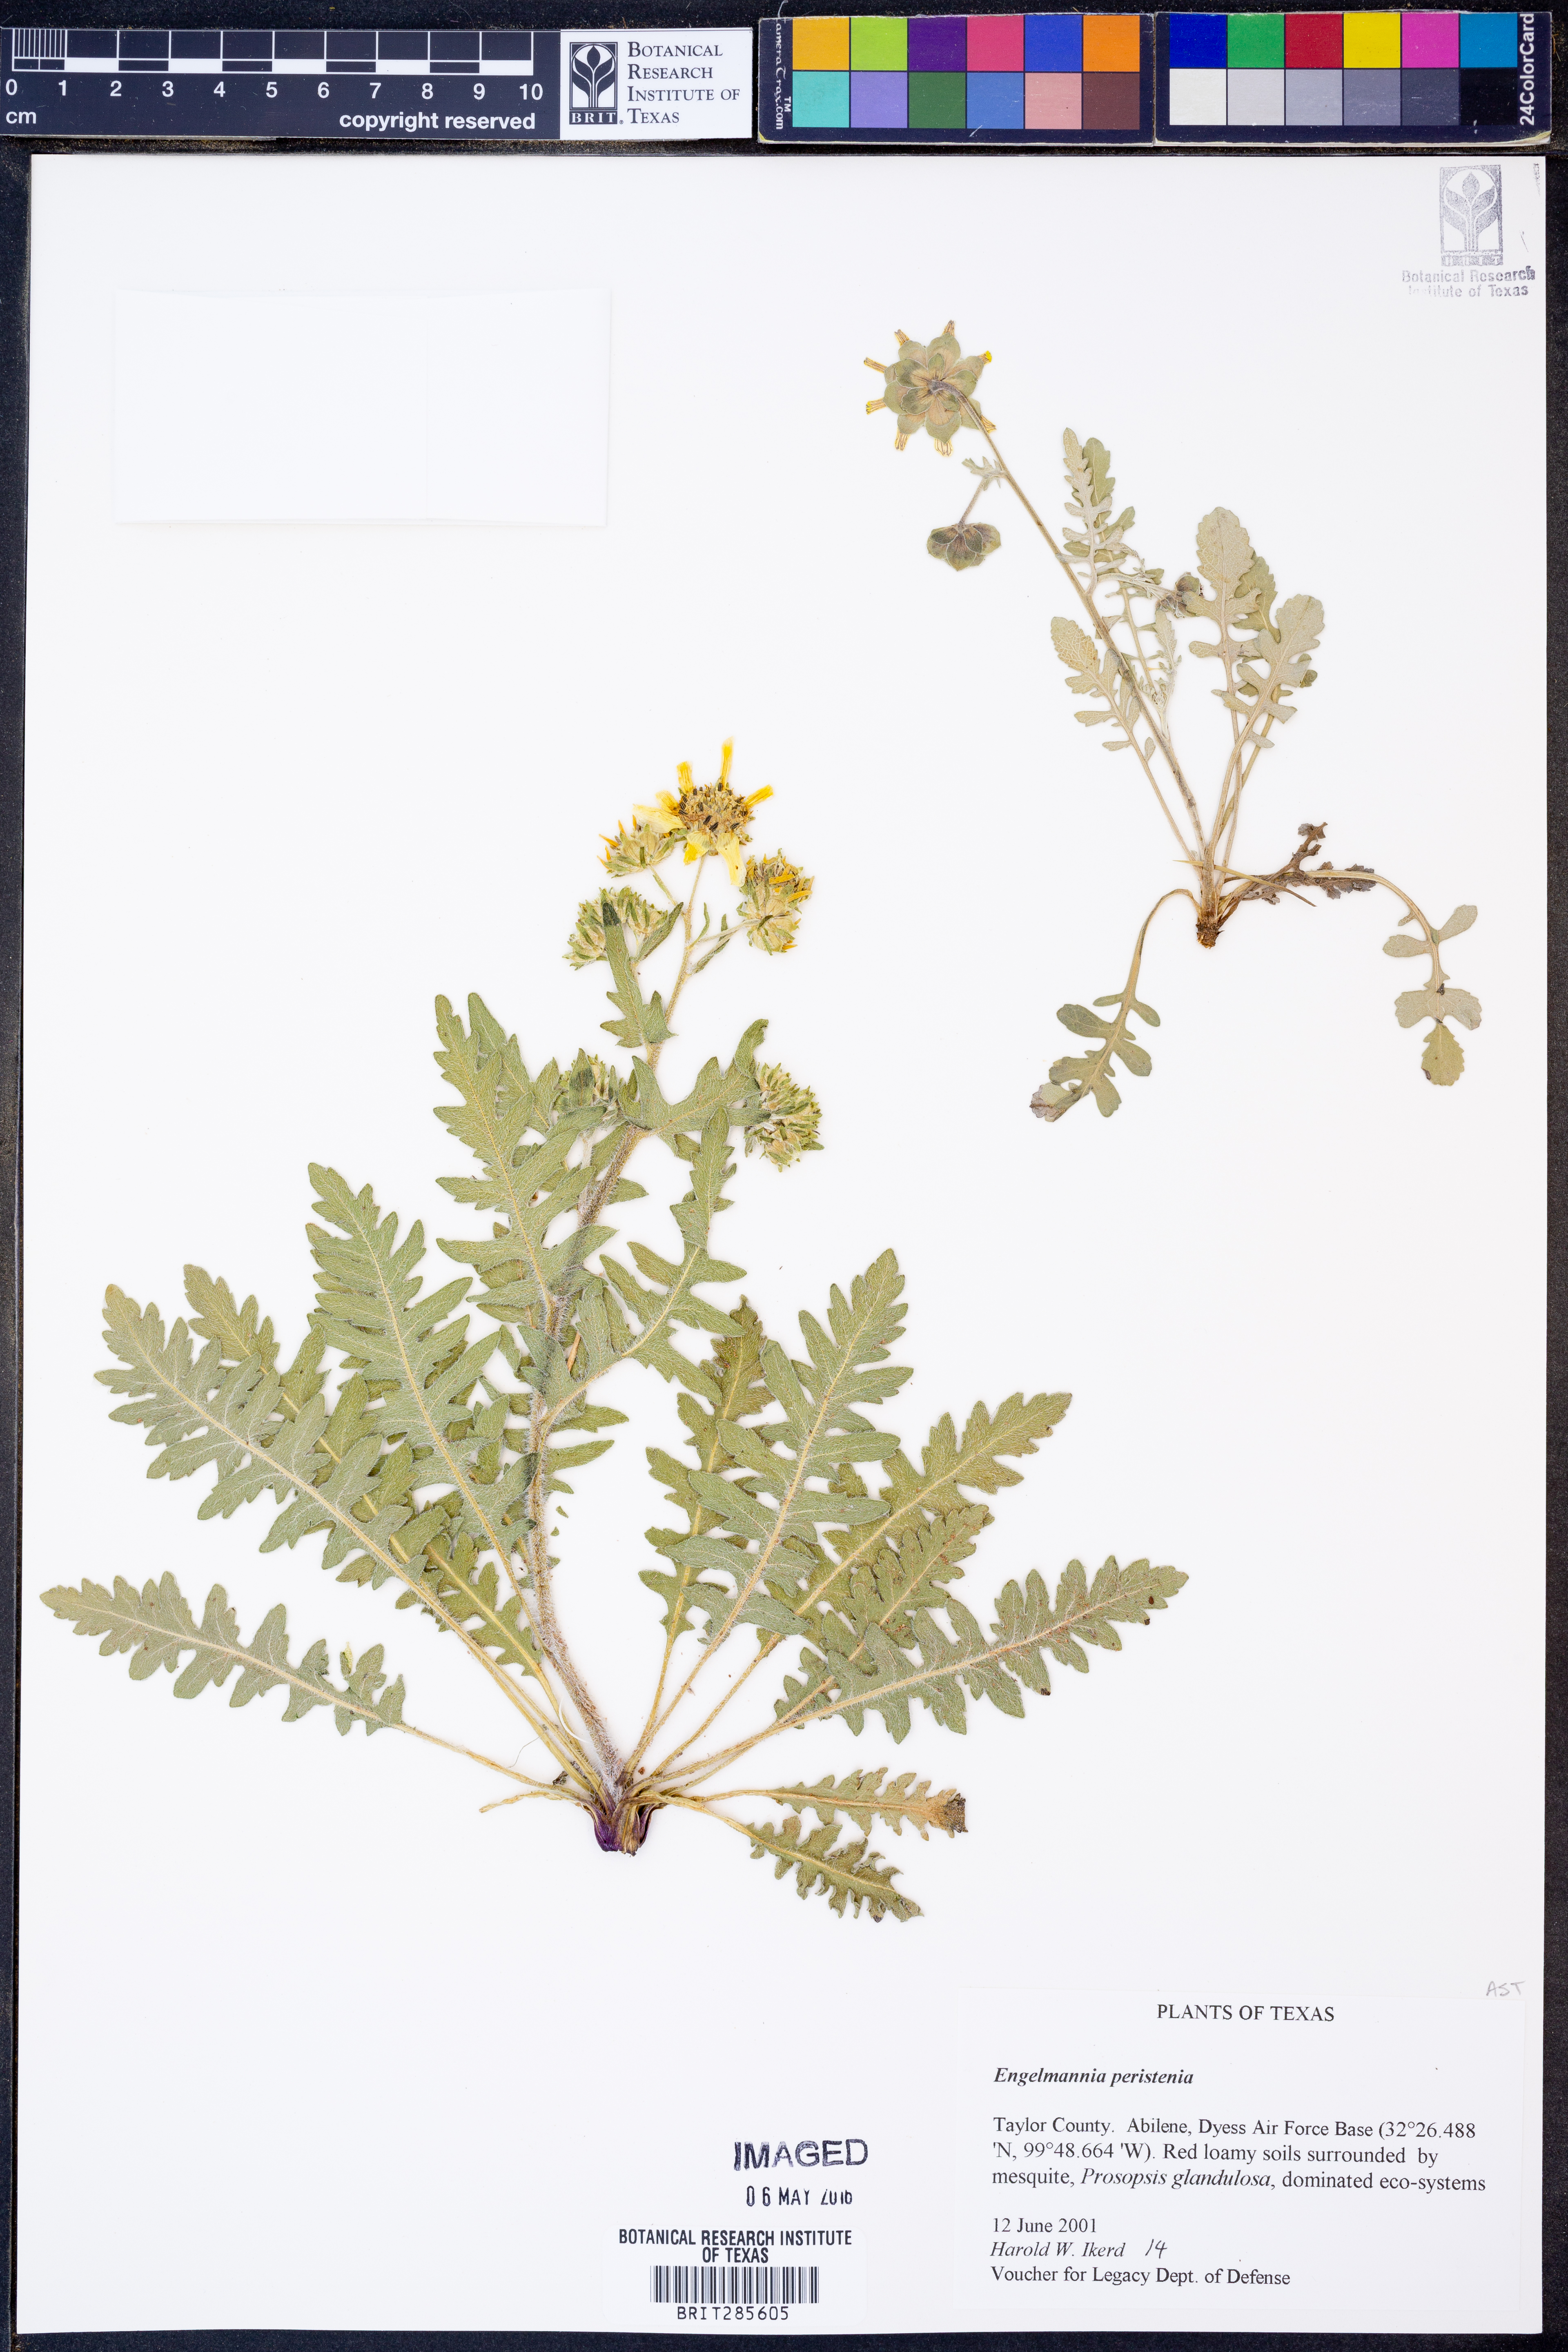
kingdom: Plantae
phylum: Tracheophyta
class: Magnoliopsida
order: Asterales
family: Asteraceae
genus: Engelmannia
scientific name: Engelmannia peristenia
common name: Engelmann's daisy
